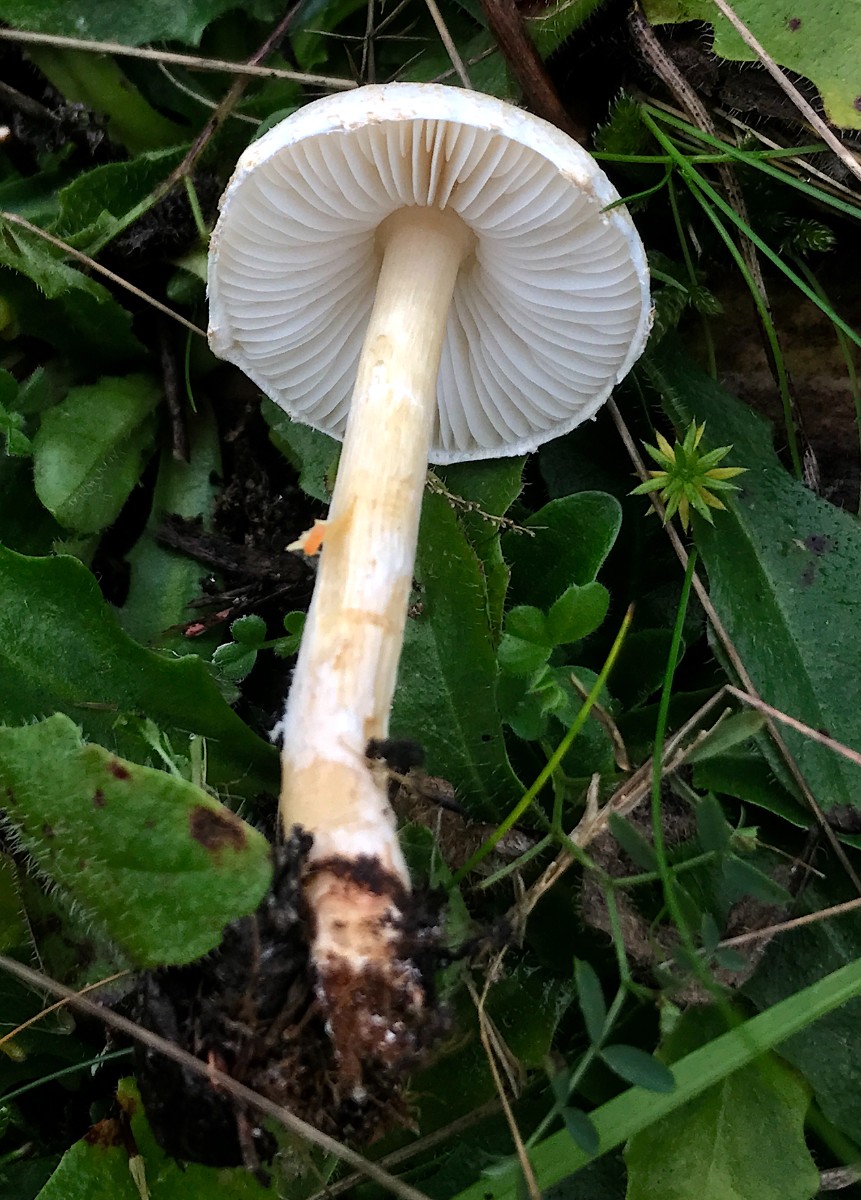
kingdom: Fungi
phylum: Basidiomycota
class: Agaricomycetes
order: Agaricales
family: Agaricaceae
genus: Lepiota
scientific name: Lepiota erminea
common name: hvid parasolhat
